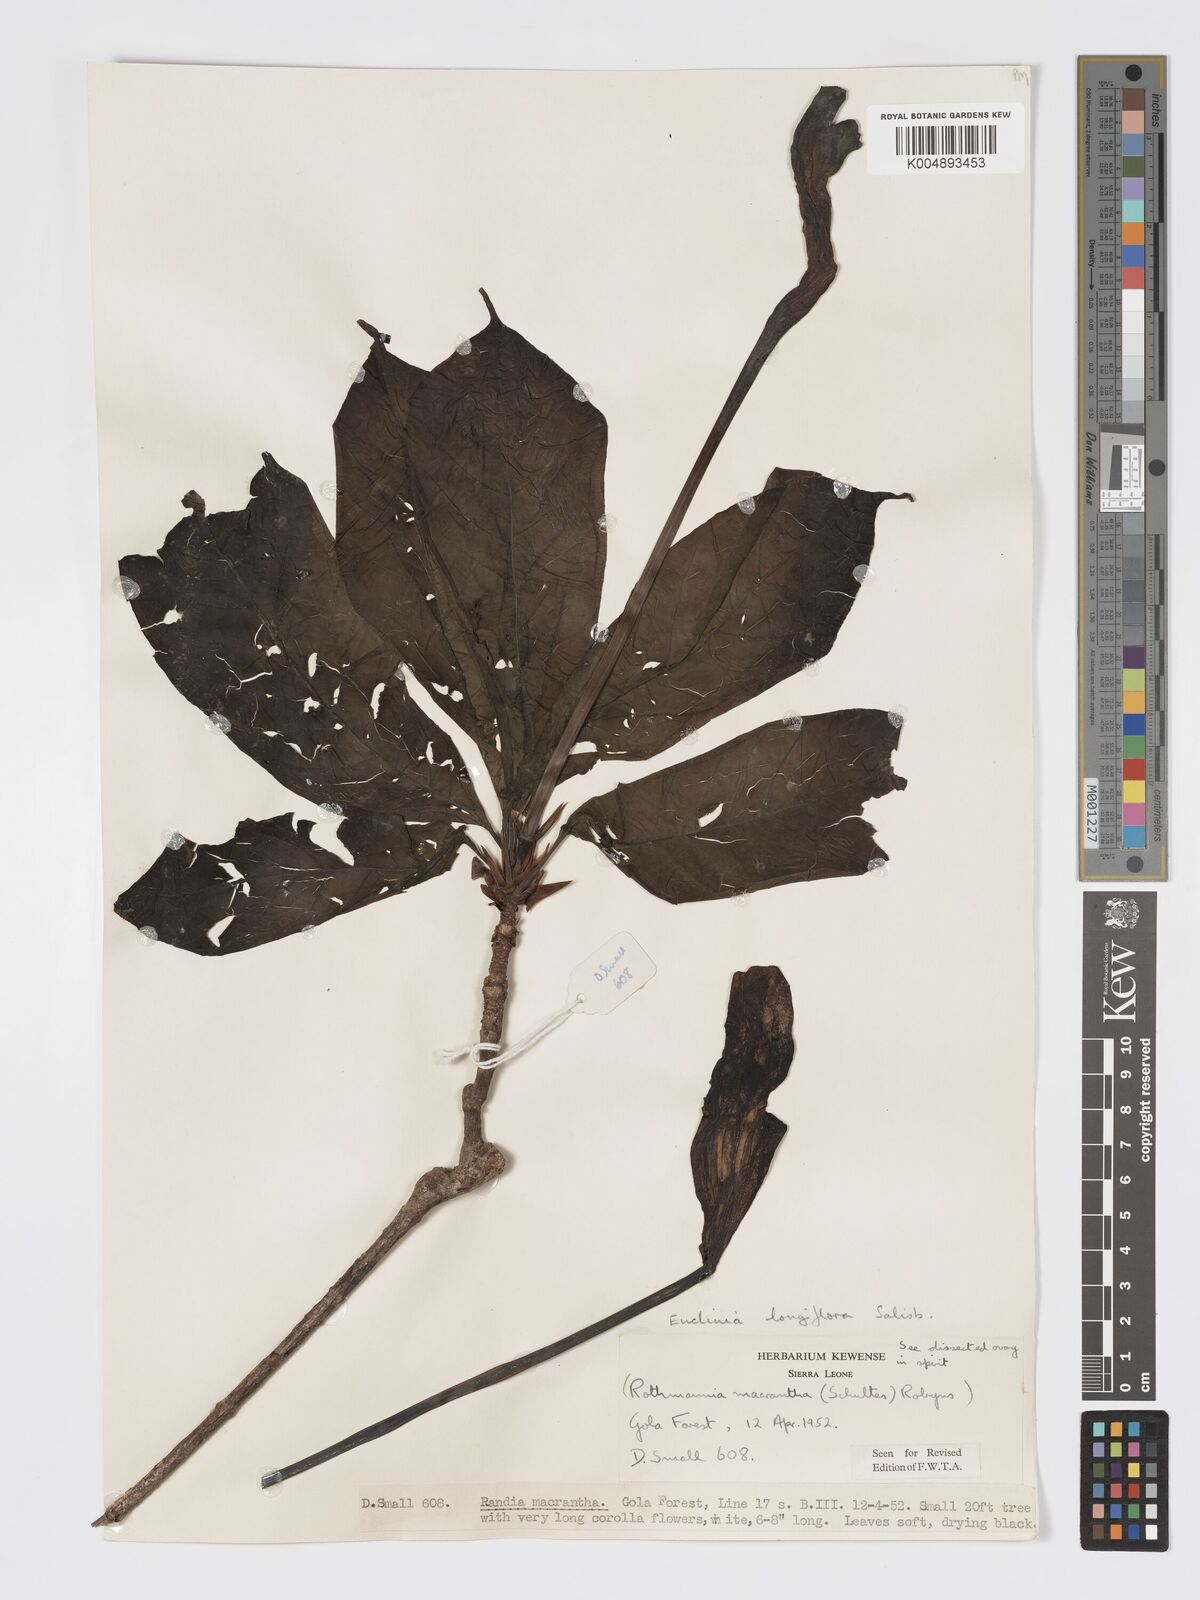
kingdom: Plantae
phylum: Tracheophyta
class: Magnoliopsida
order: Gentianales
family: Rubiaceae
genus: Euclinia
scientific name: Euclinia longiflora
